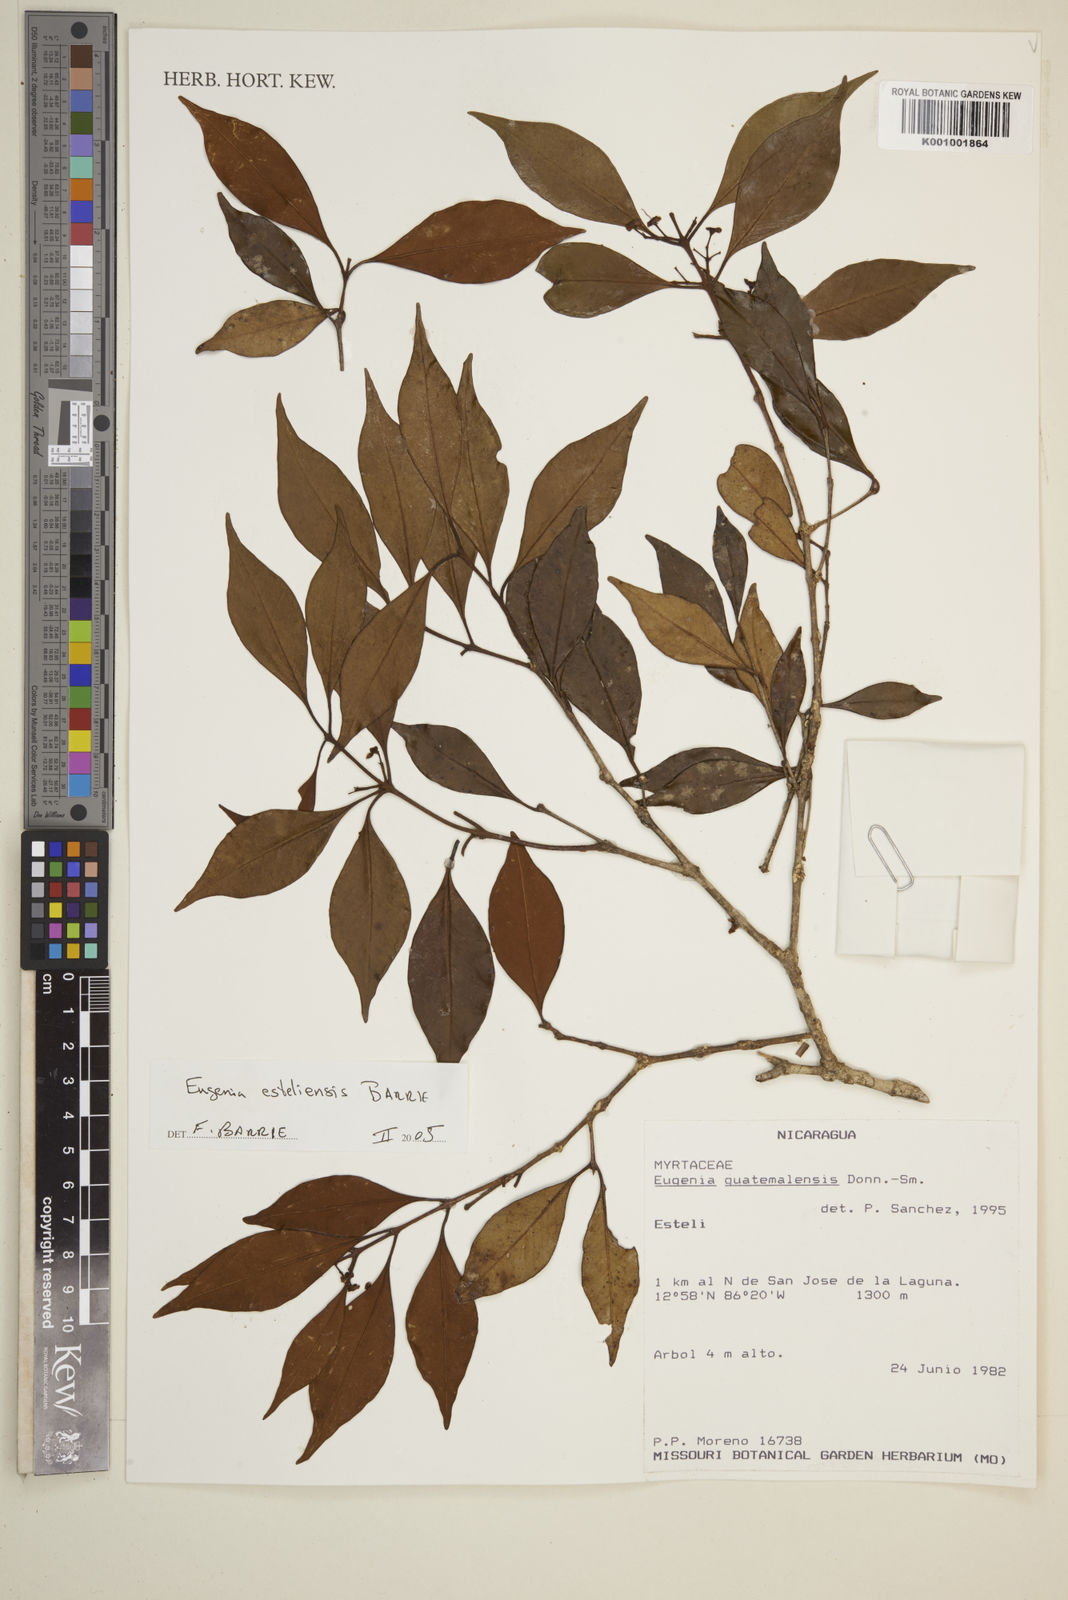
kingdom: Plantae
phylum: Tracheophyta
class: Magnoliopsida
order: Myrtales
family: Myrtaceae
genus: Eugenia
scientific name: Eugenia esteliensis
